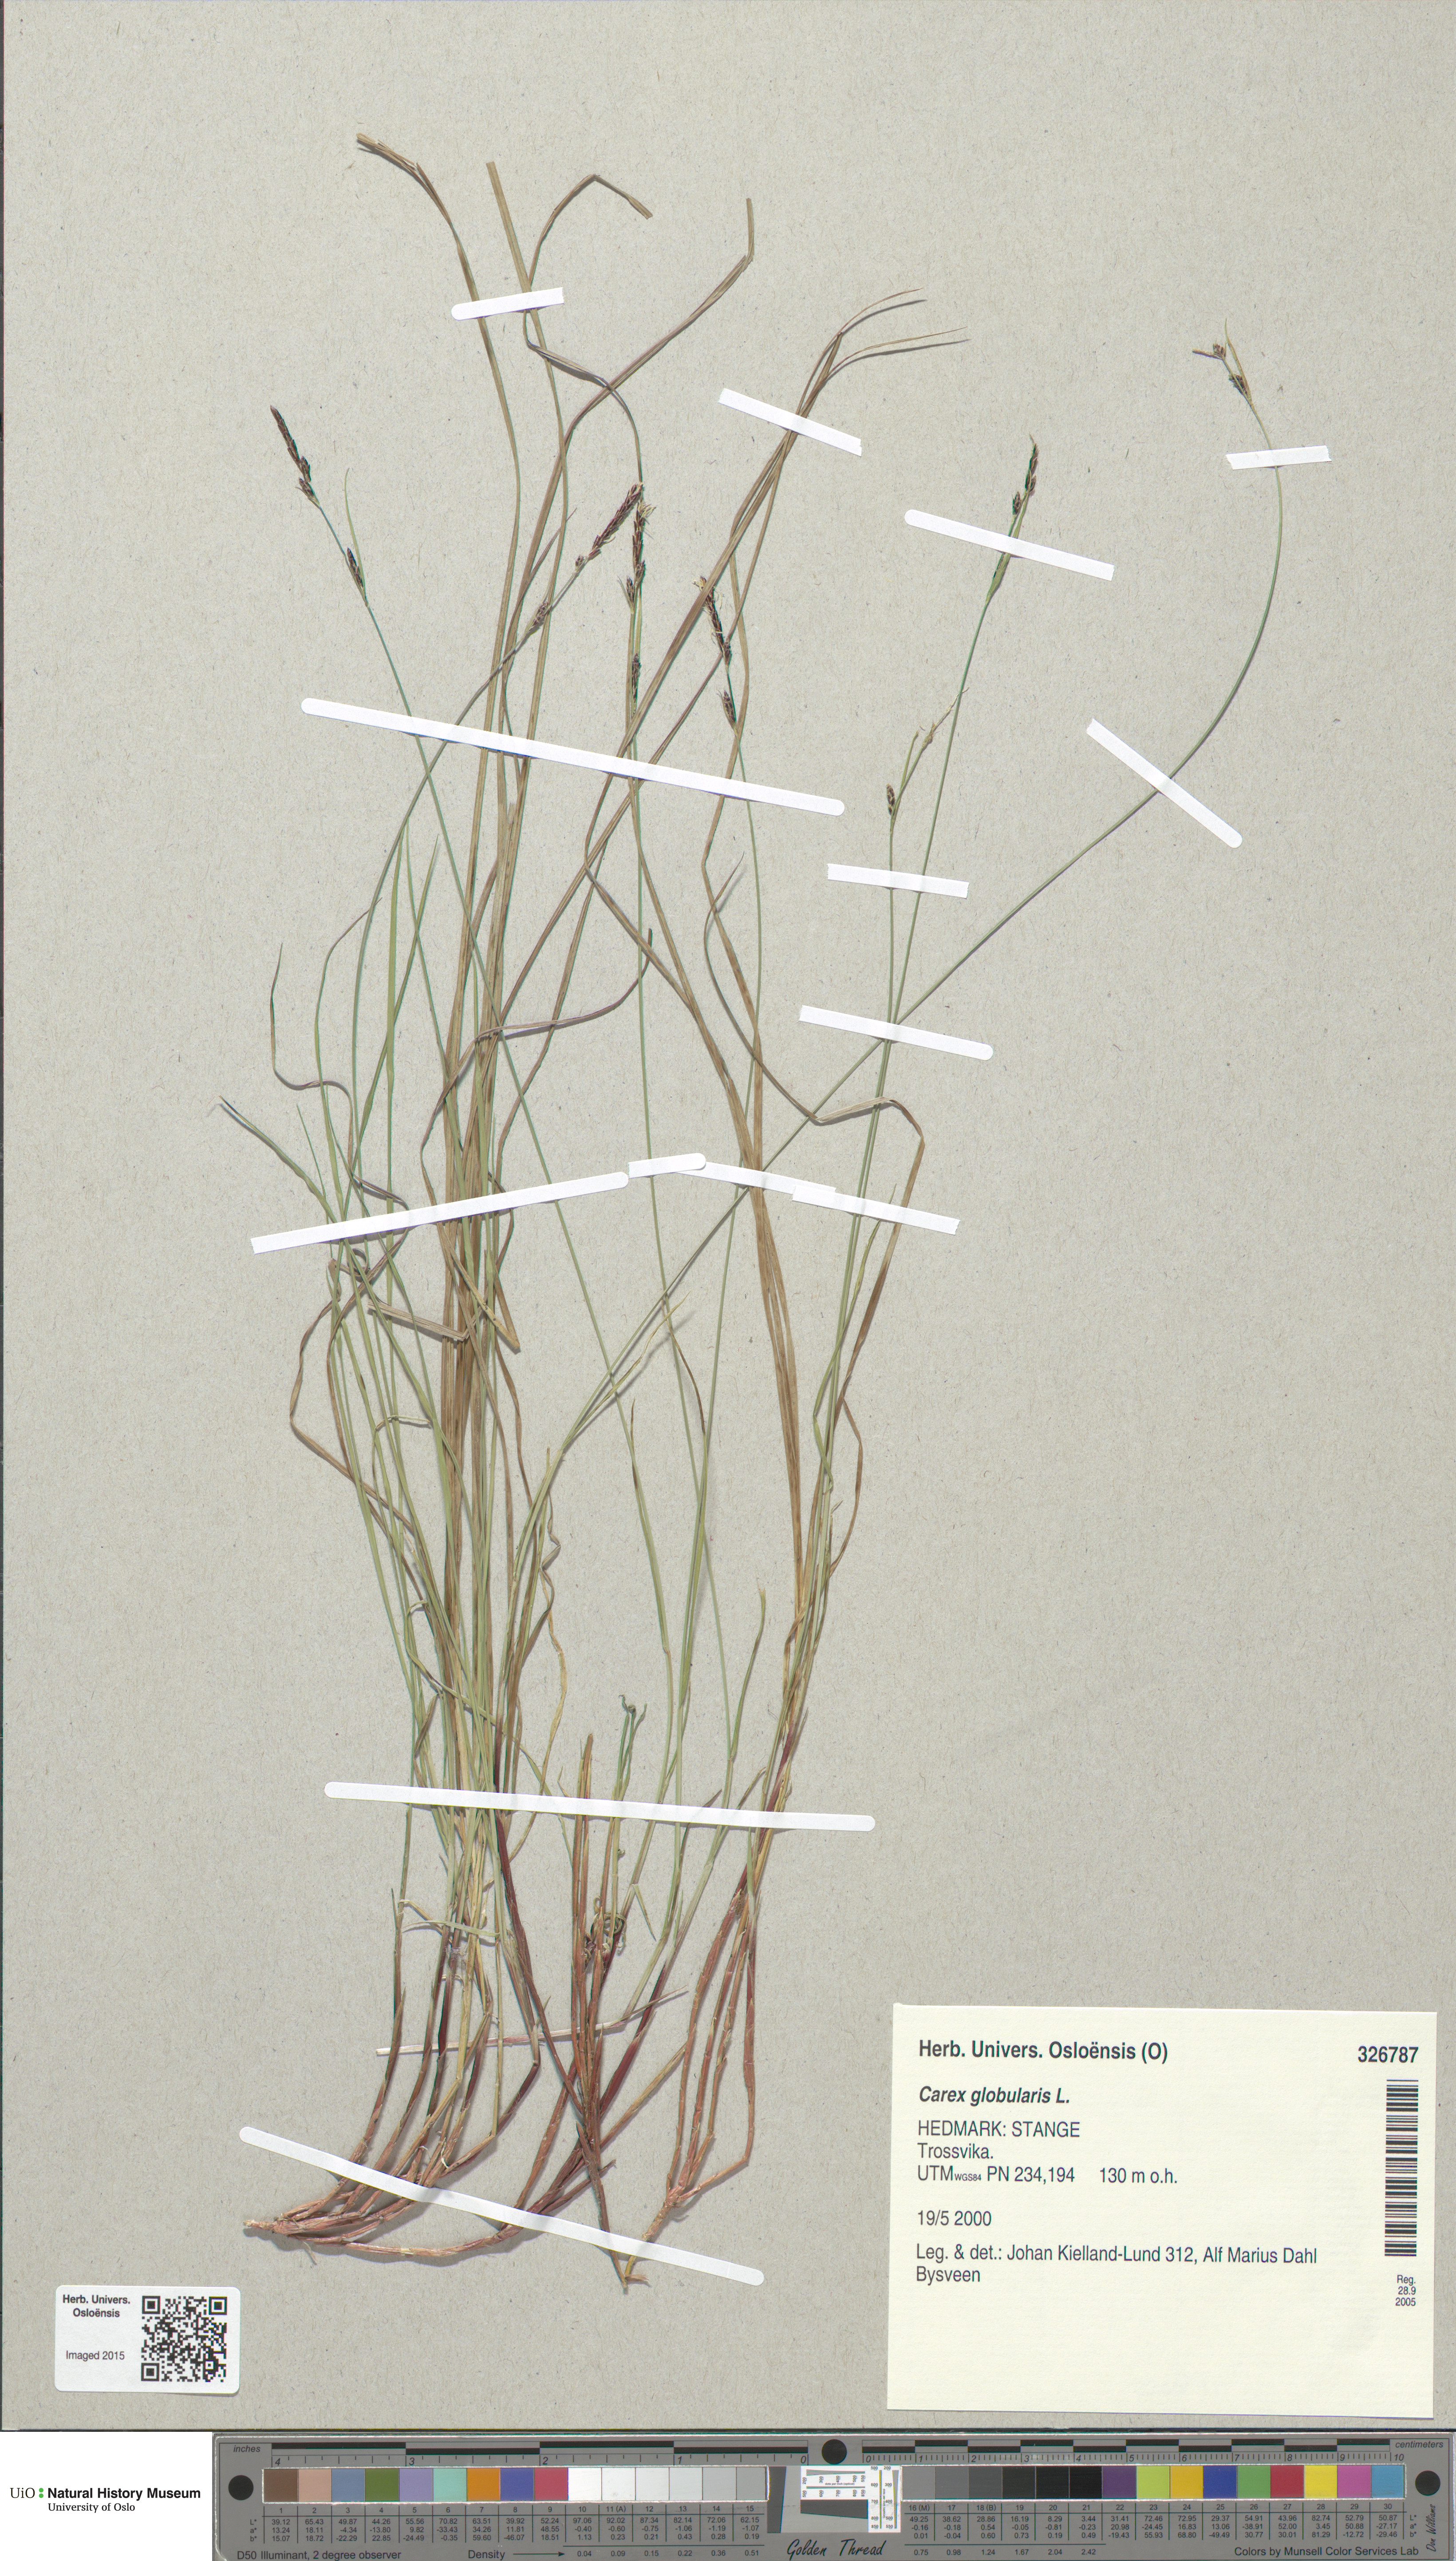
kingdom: Plantae
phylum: Tracheophyta
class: Liliopsida
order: Poales
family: Cyperaceae
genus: Carex
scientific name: Carex globularis
